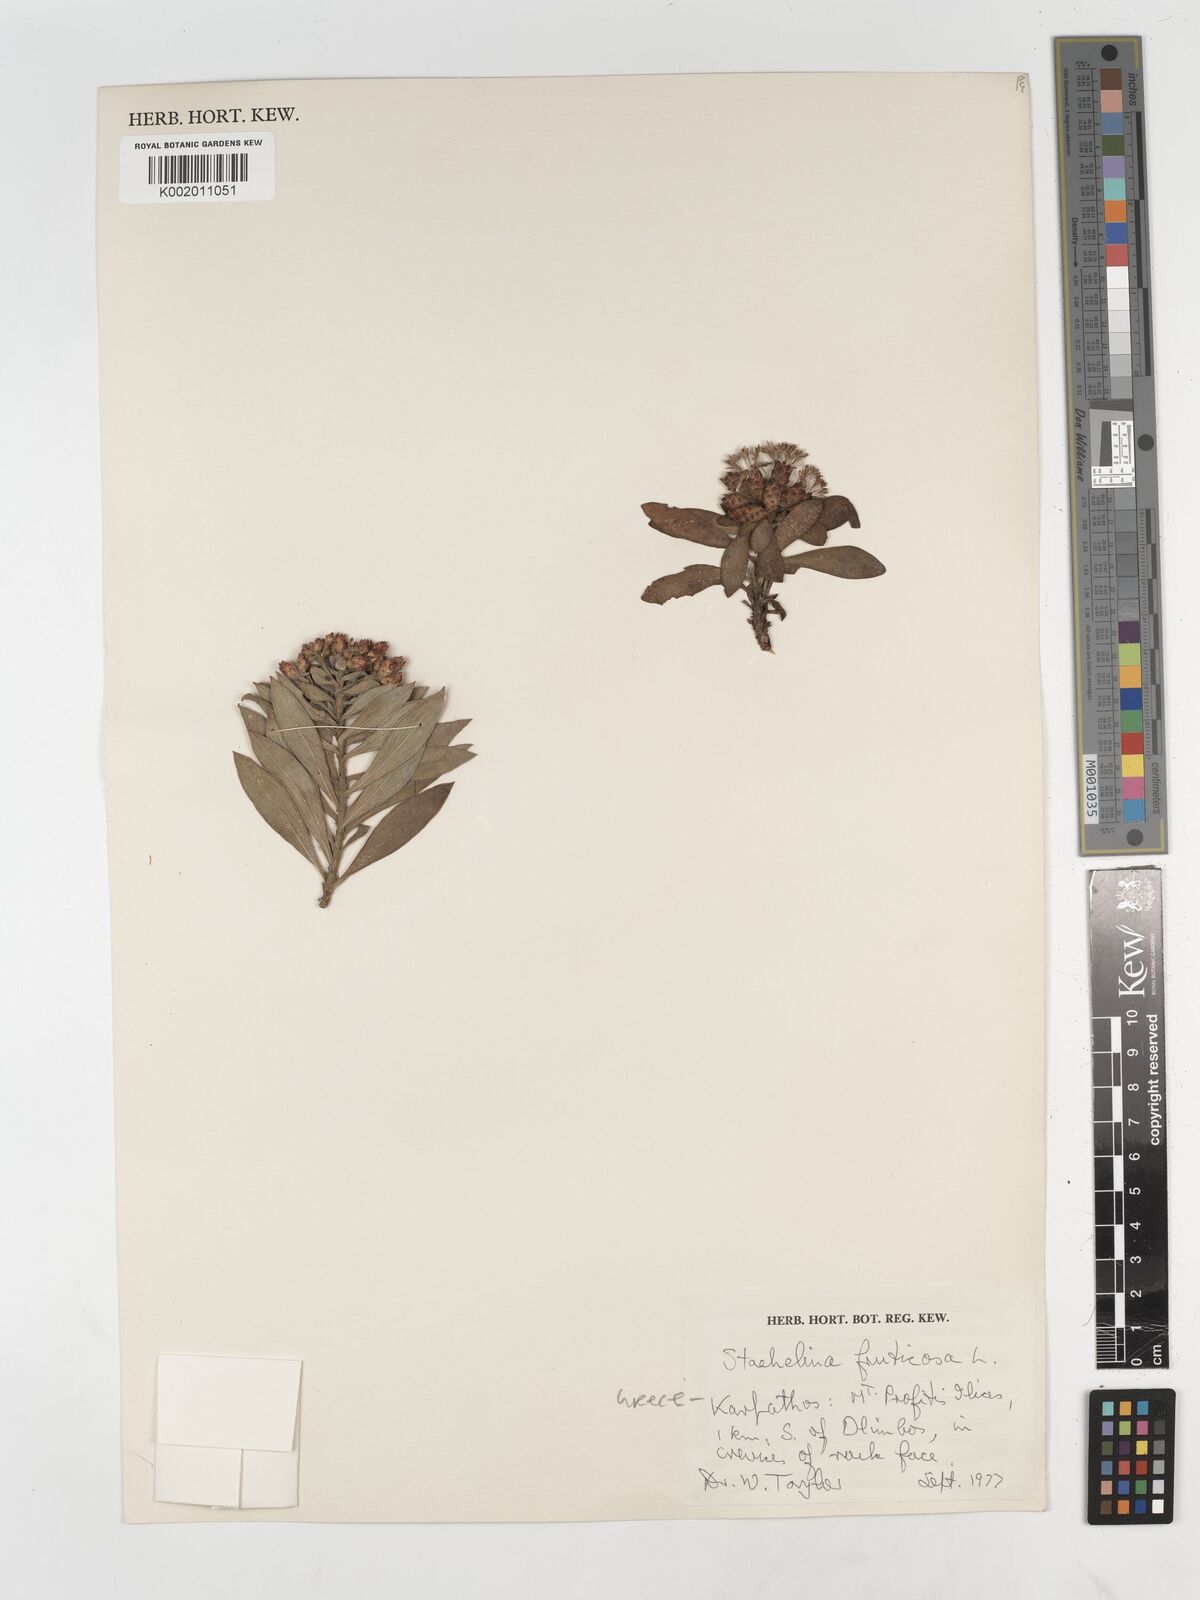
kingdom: Plantae
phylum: Tracheophyta
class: Magnoliopsida
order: Asterales
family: Asteraceae
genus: Hirtellina
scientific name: Hirtellina fruticosa
